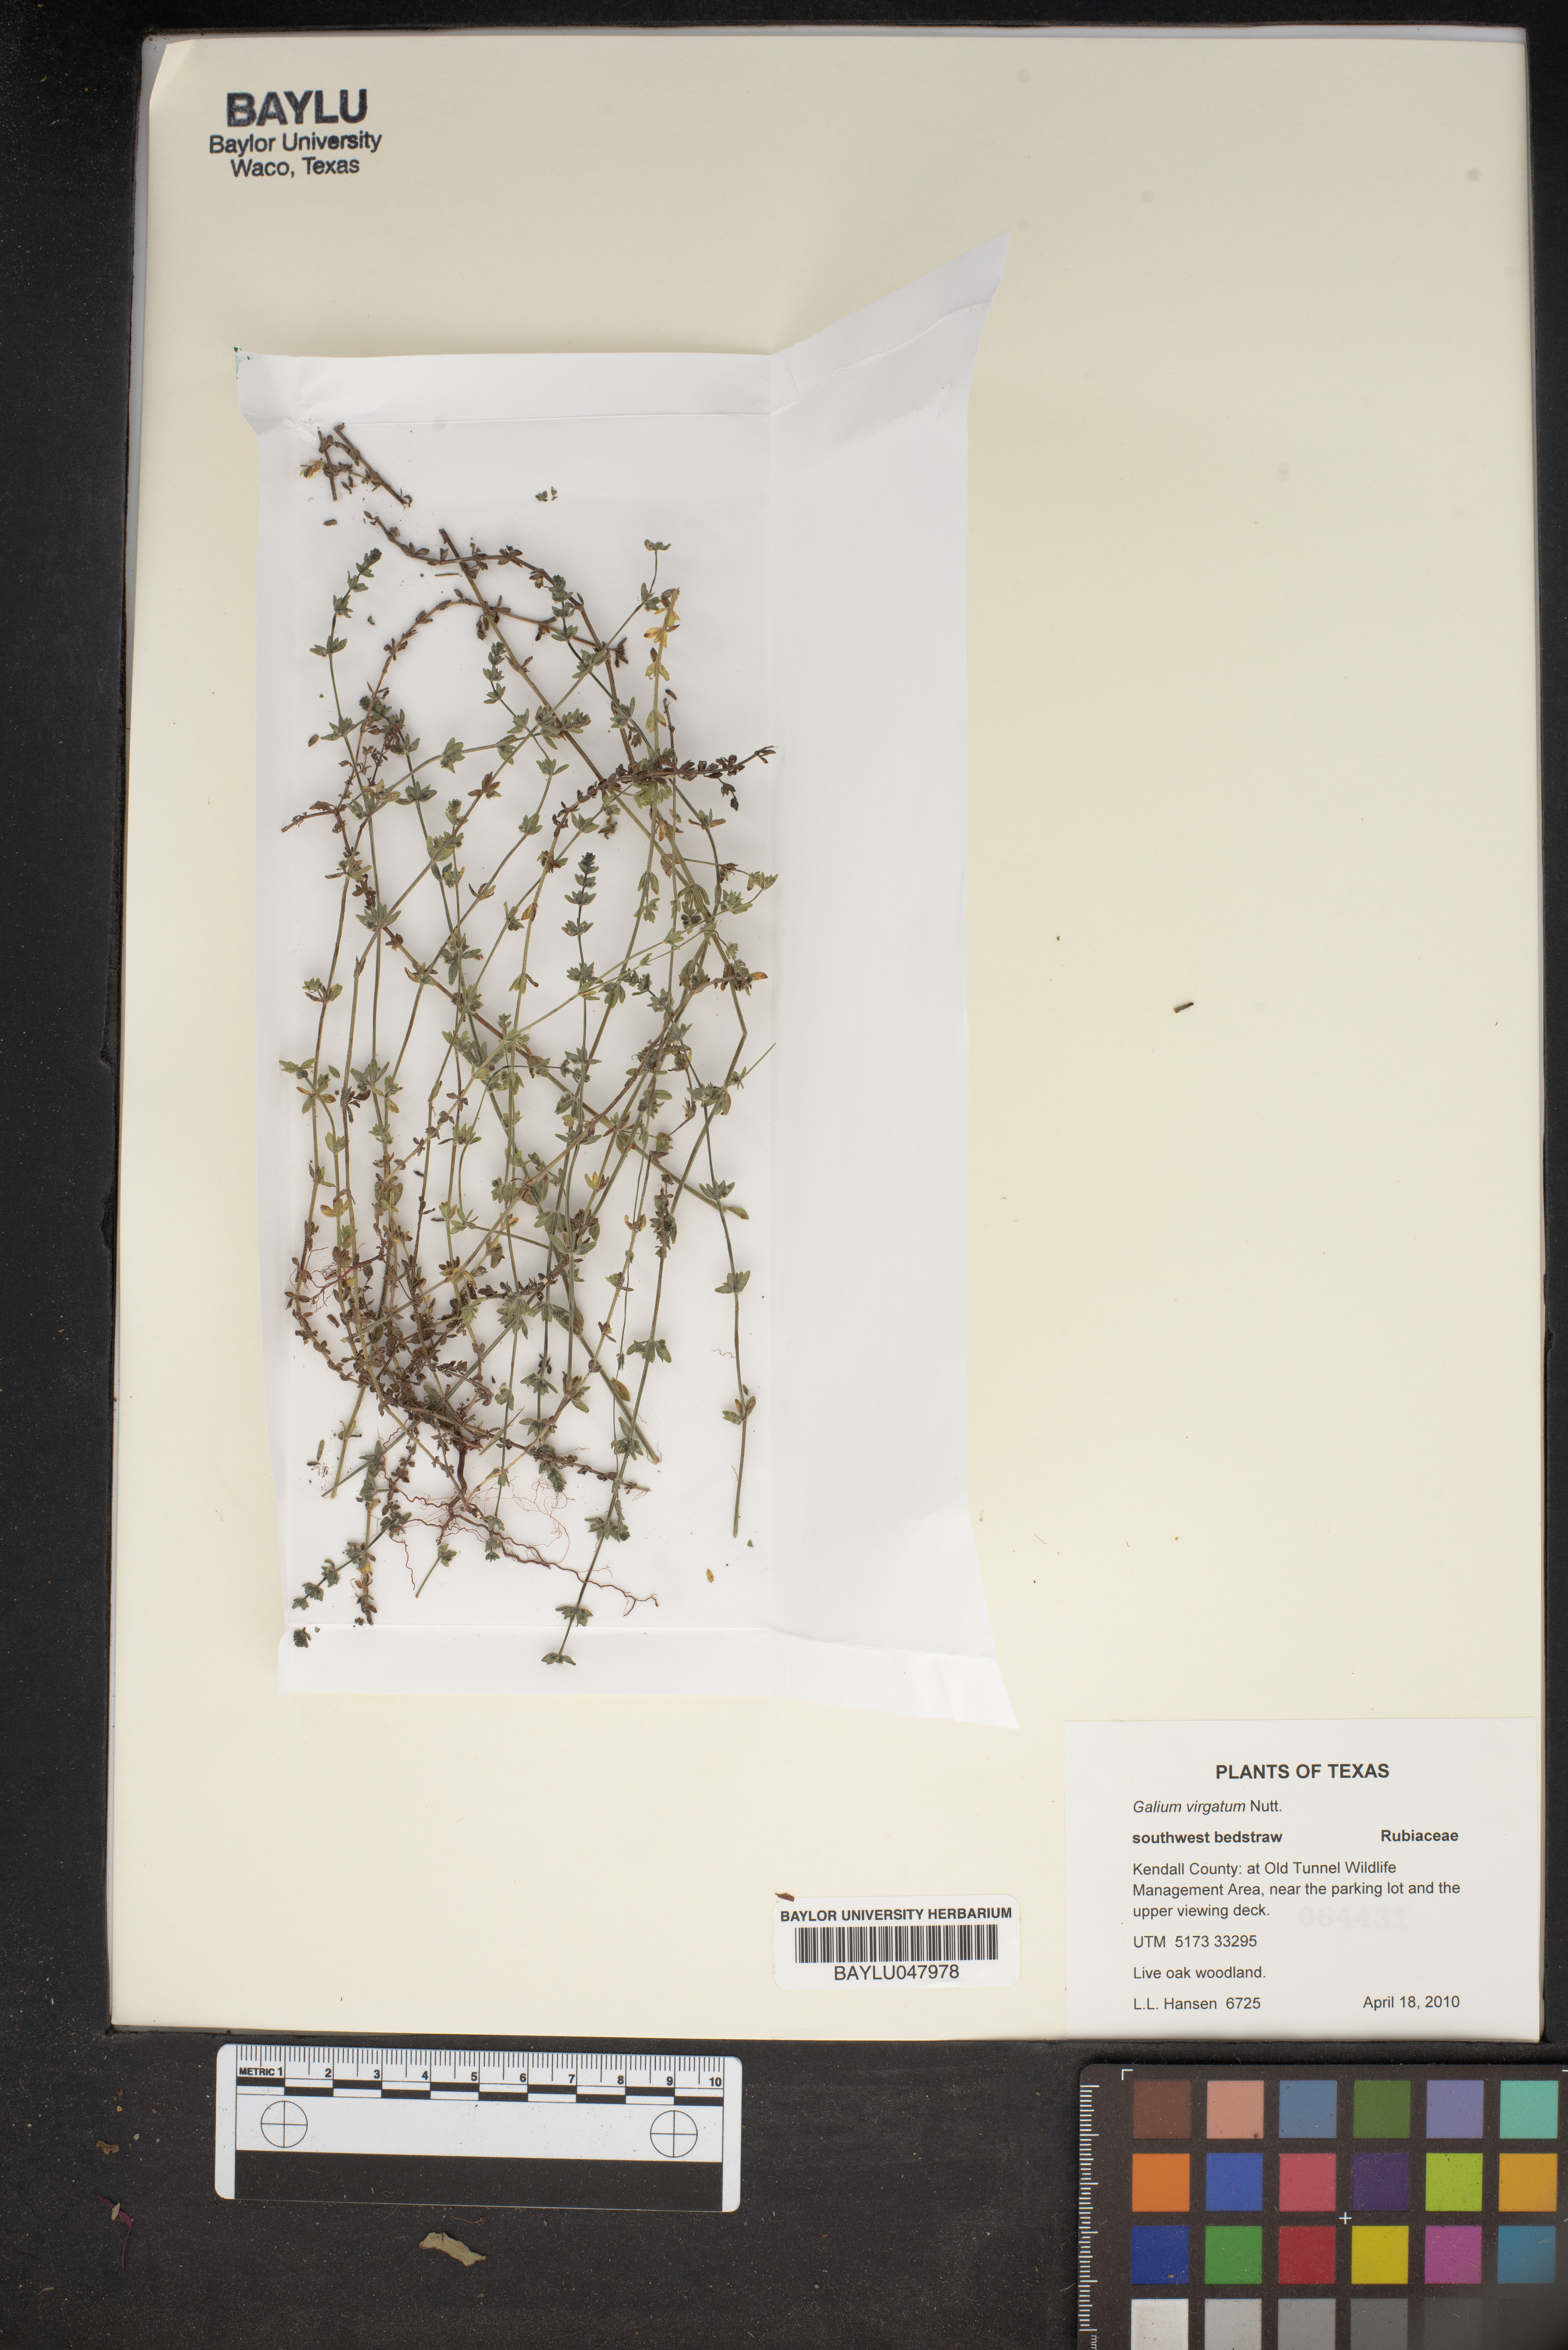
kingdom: Plantae
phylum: Tracheophyta
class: Magnoliopsida
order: Gentianales
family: Rubiaceae
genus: Galium
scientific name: Galium virgatum
